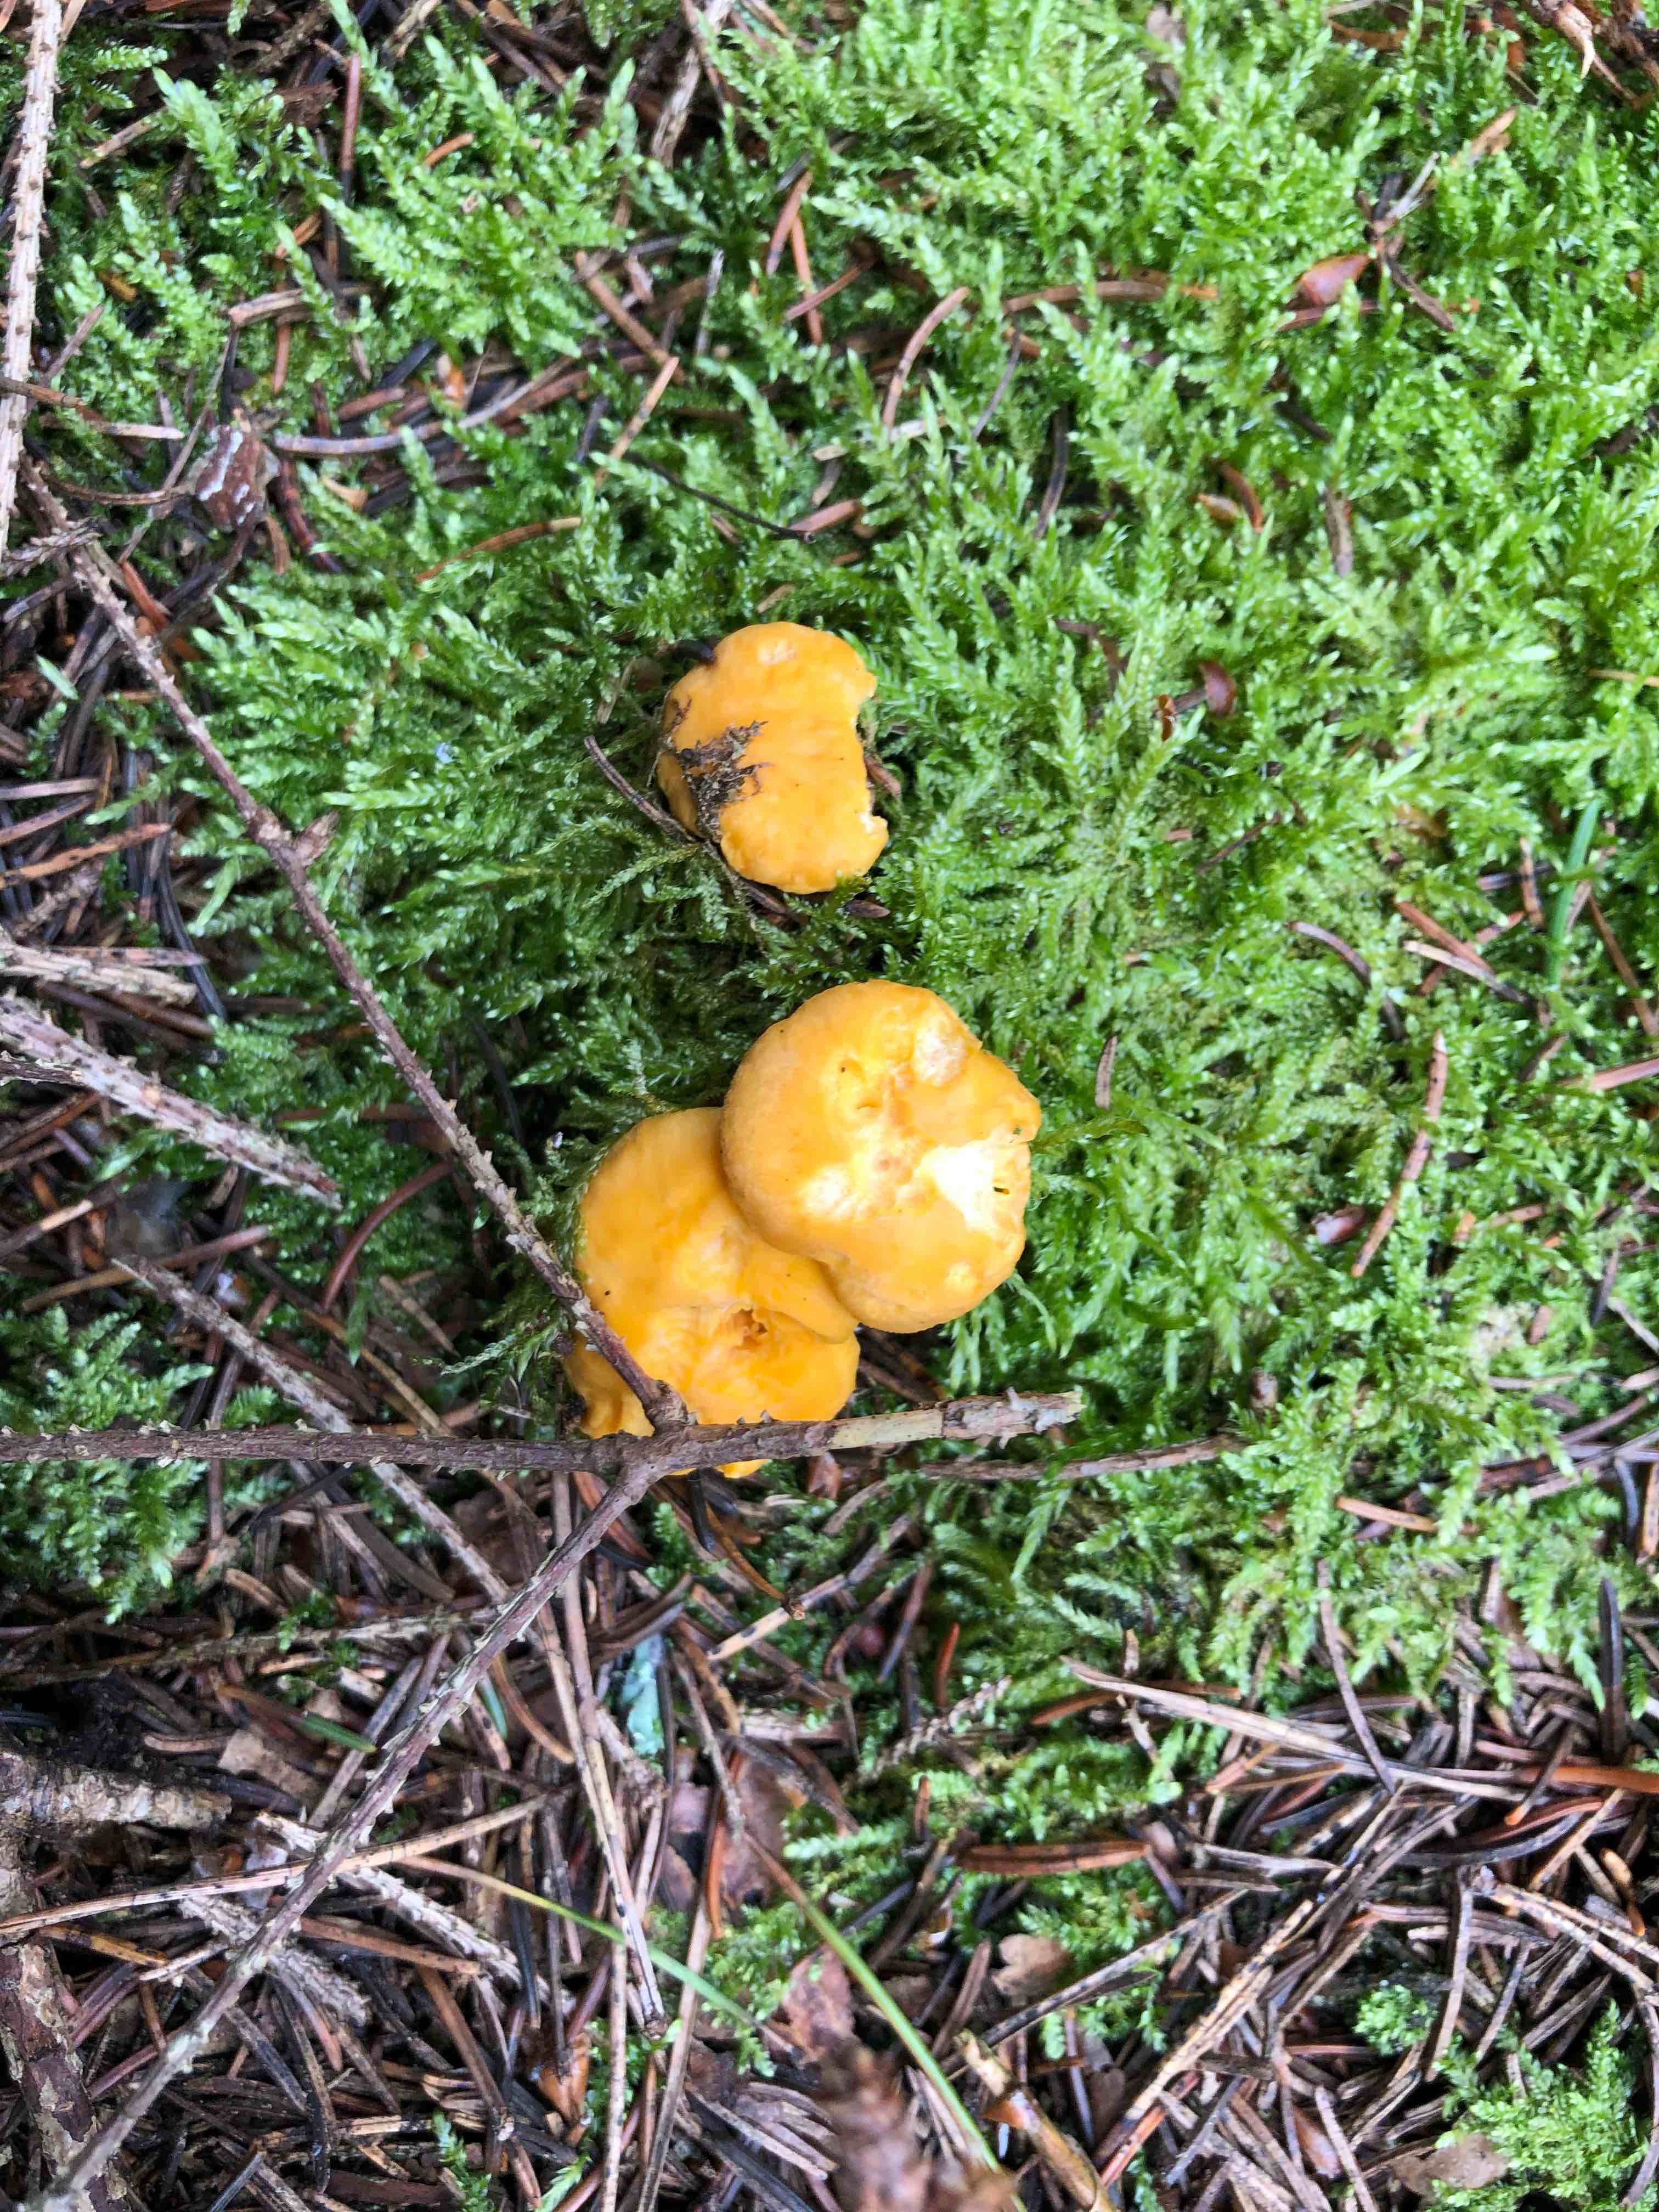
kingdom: Fungi
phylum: Basidiomycota
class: Agaricomycetes
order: Cantharellales
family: Hydnaceae
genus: Cantharellus
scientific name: Cantharellus cibarius
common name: almindelig kantarel
